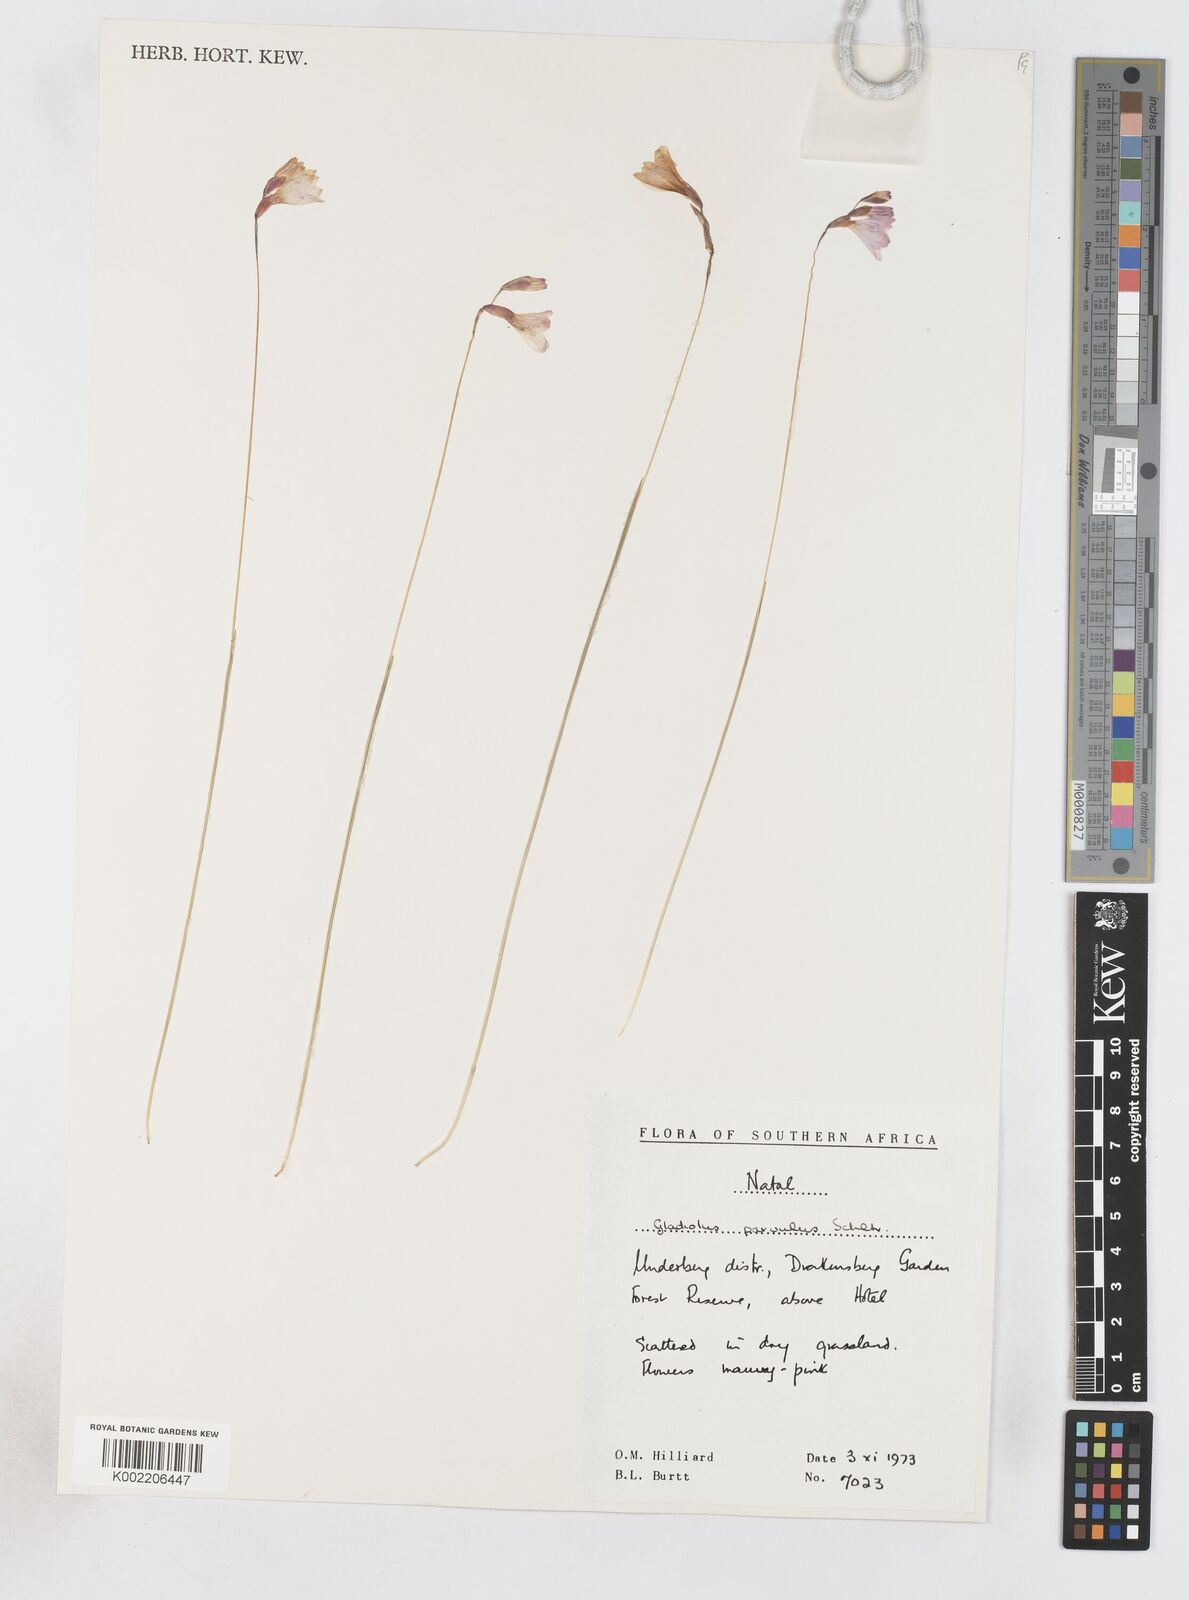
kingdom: Plantae
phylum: Tracheophyta
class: Liliopsida
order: Asparagales
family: Iridaceae
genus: Gladiolus
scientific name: Gladiolus parvulus
